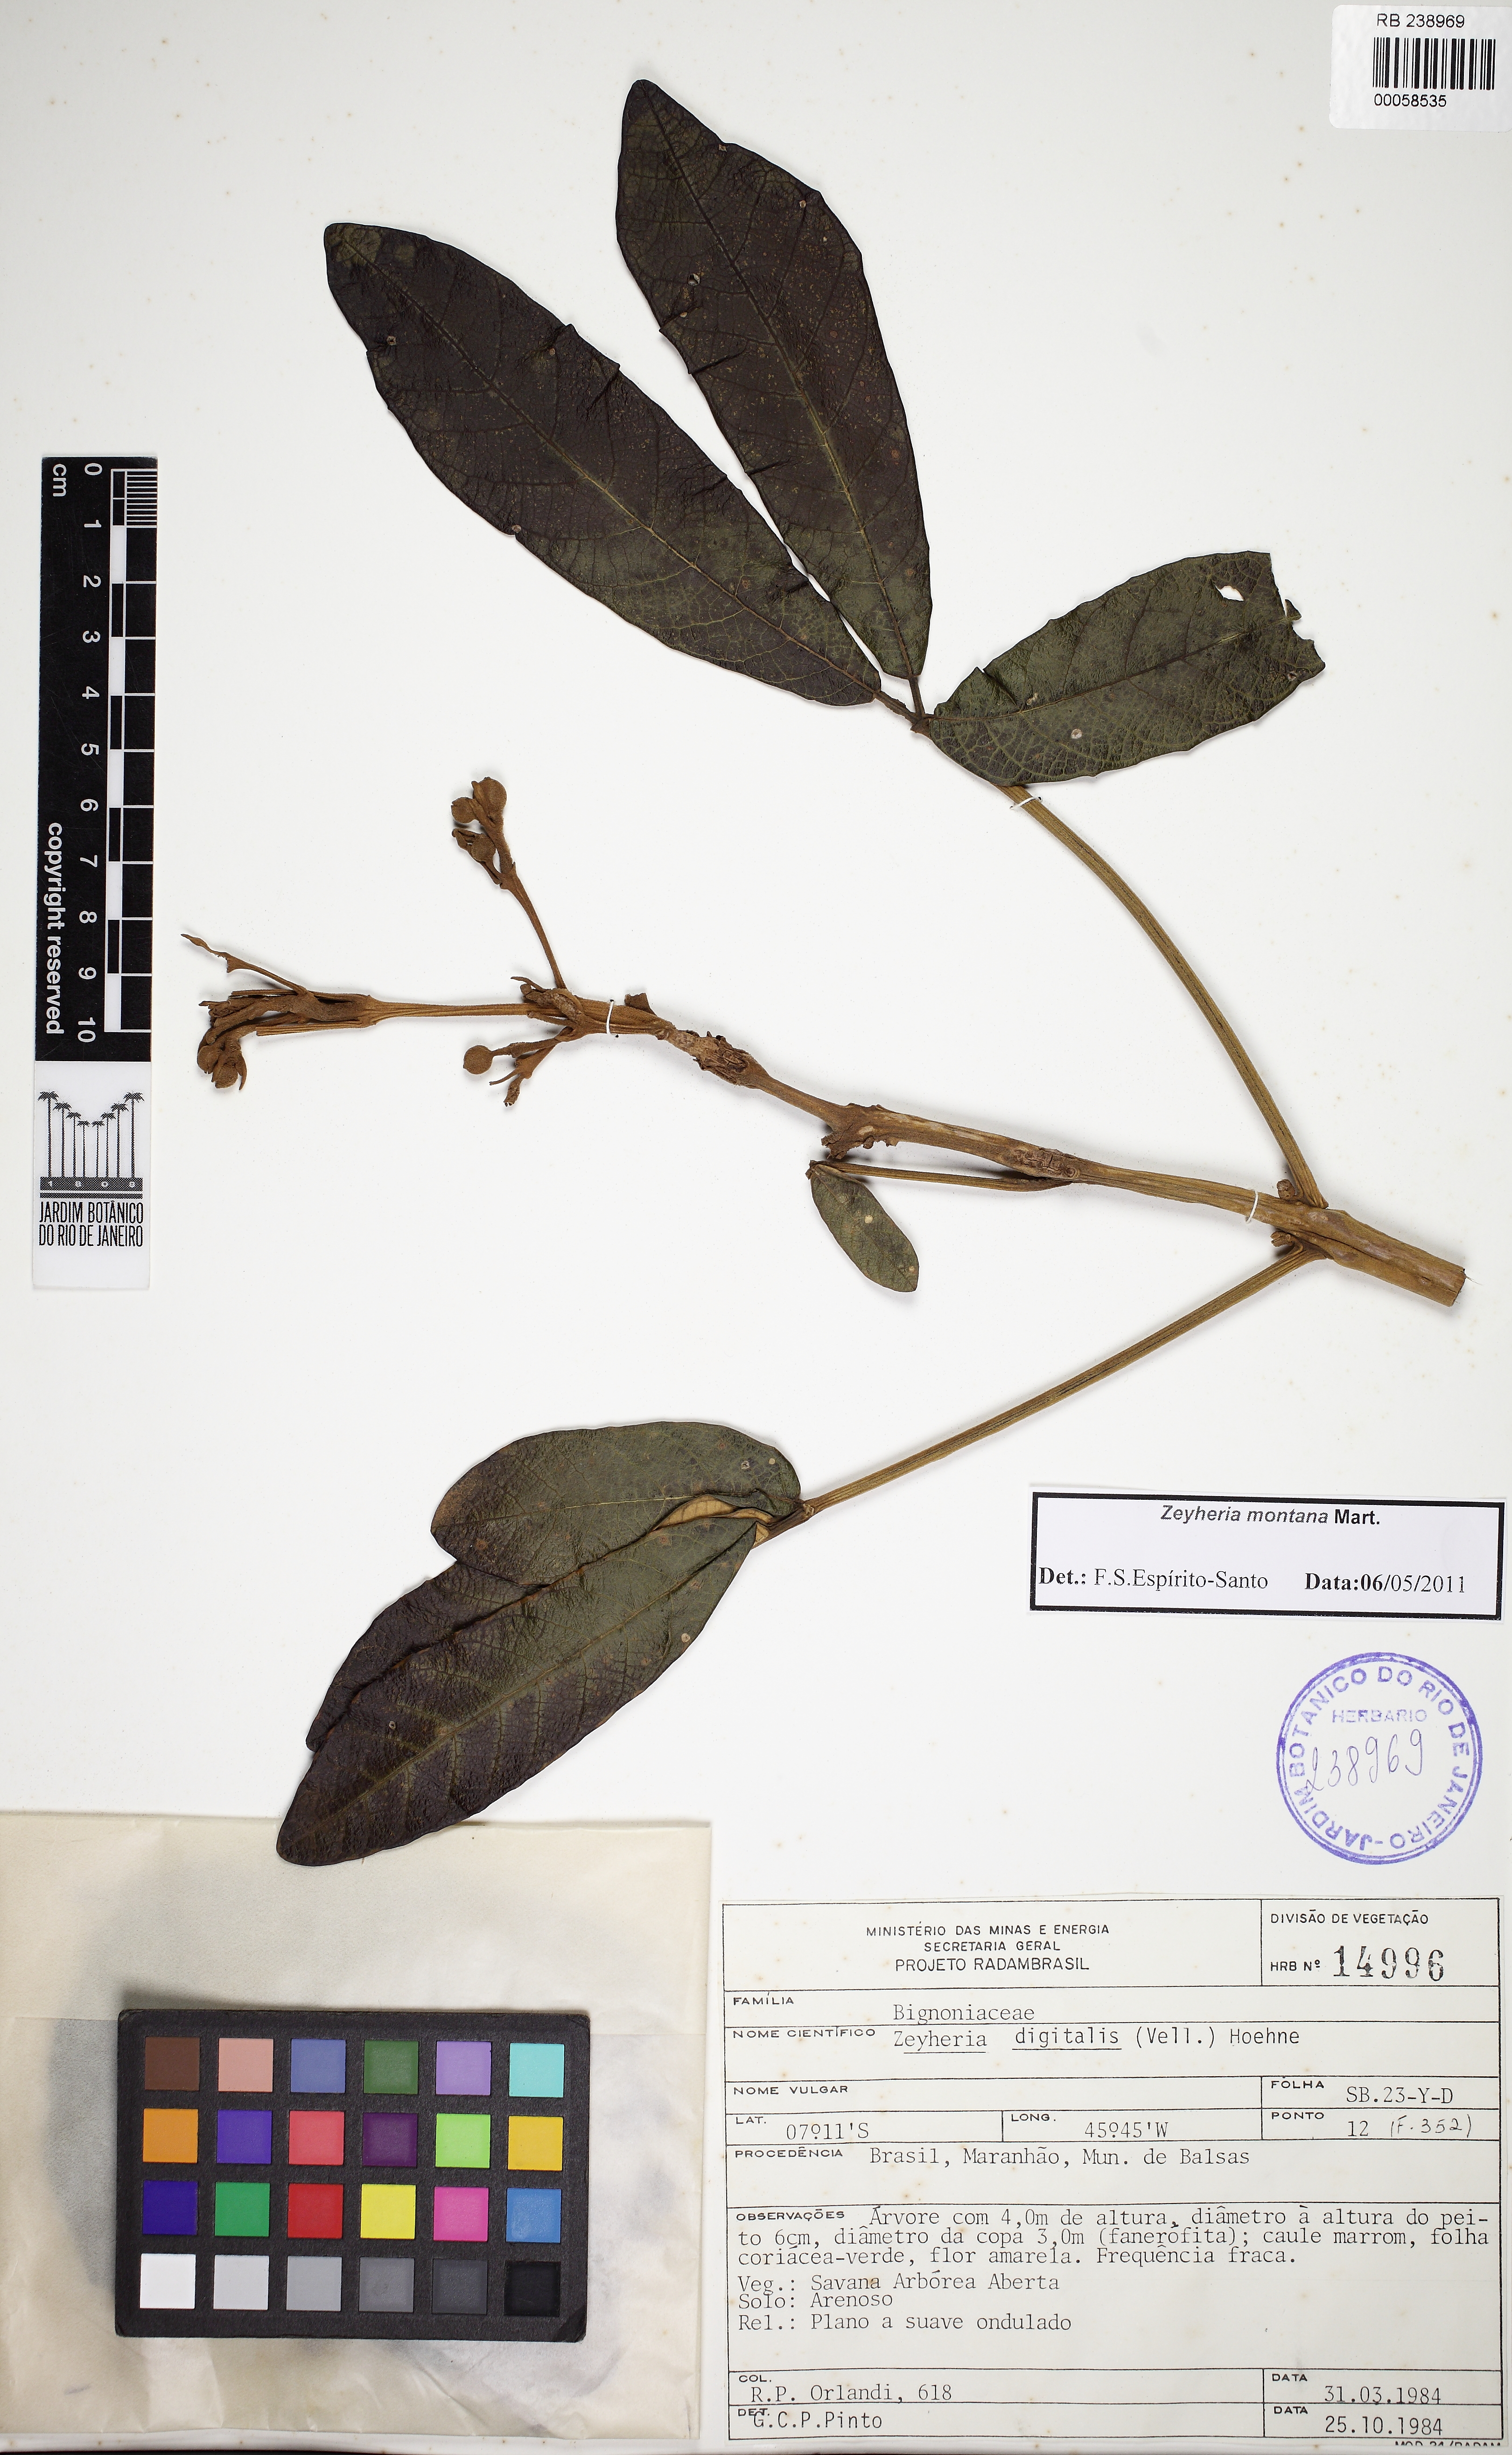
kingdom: Plantae
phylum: Tracheophyta
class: Magnoliopsida
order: Lamiales
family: Bignoniaceae
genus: Zeyheria
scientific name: Zeyheria montana
